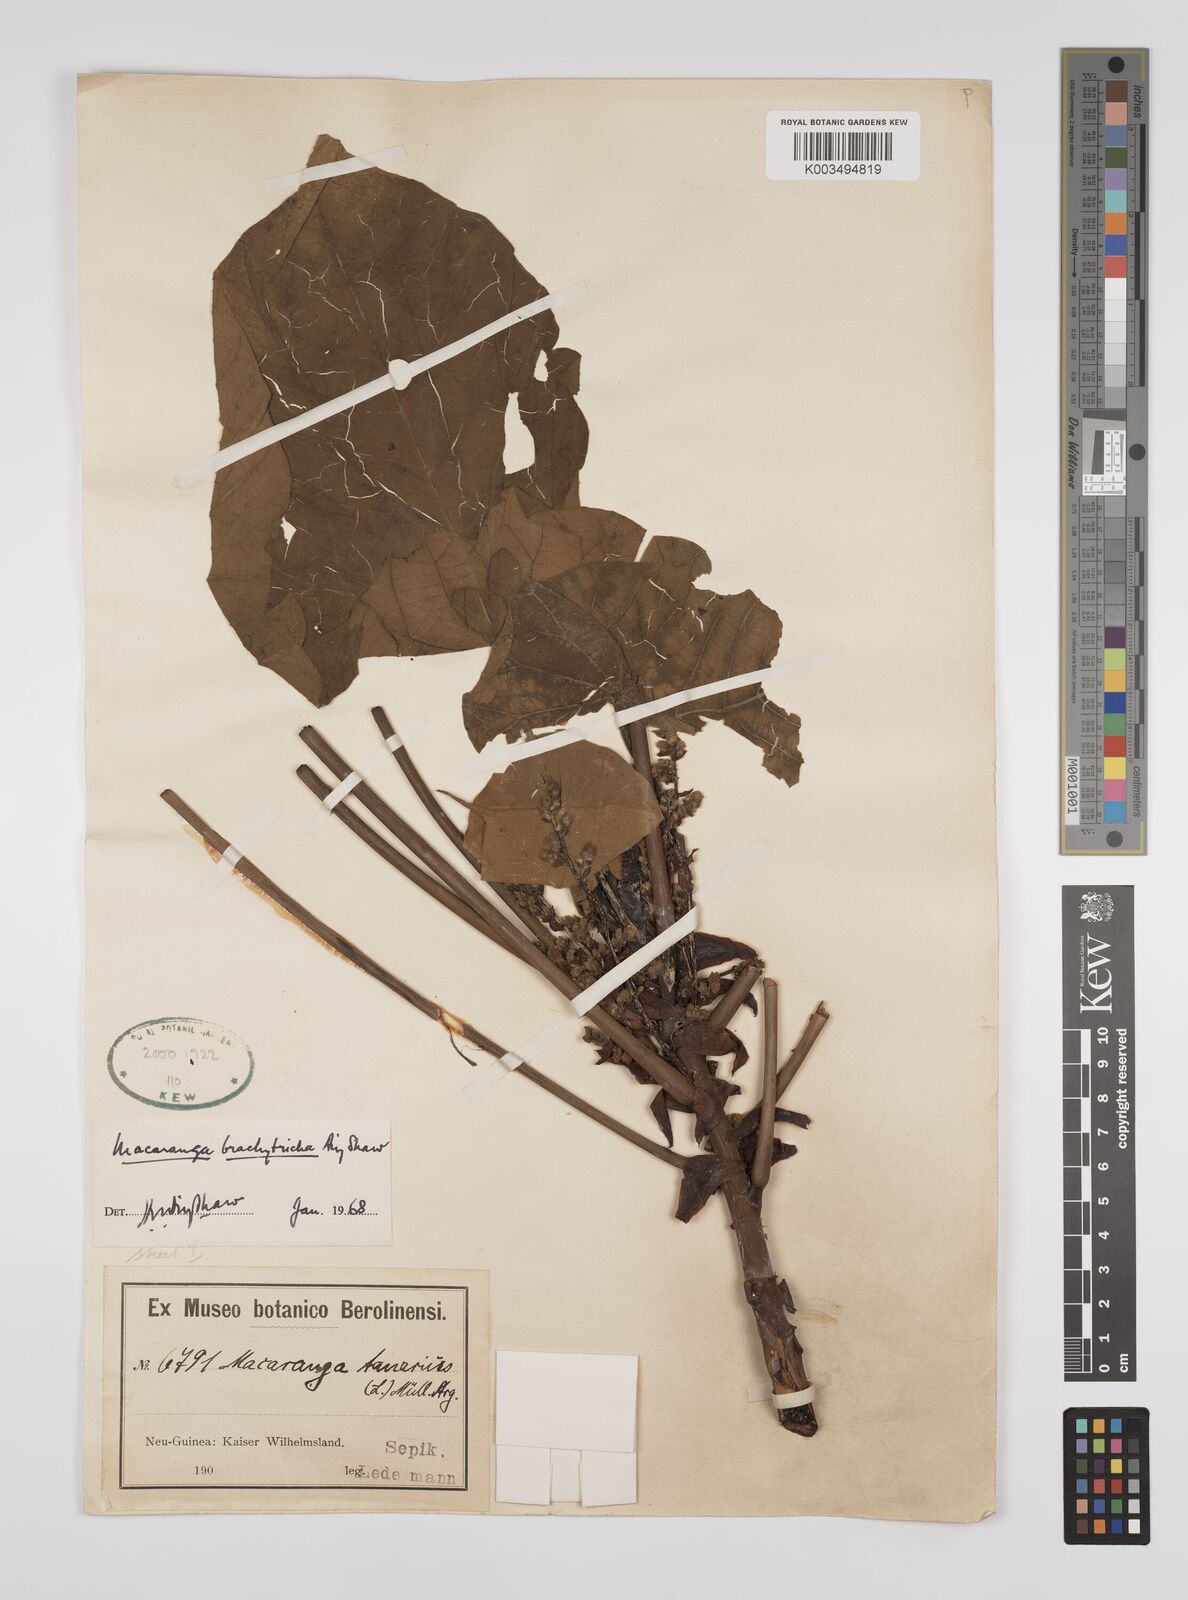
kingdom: Plantae
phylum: Tracheophyta
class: Magnoliopsida
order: Malpighiales
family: Euphorbiaceae
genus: Macaranga
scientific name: Macaranga brachythyrsa
